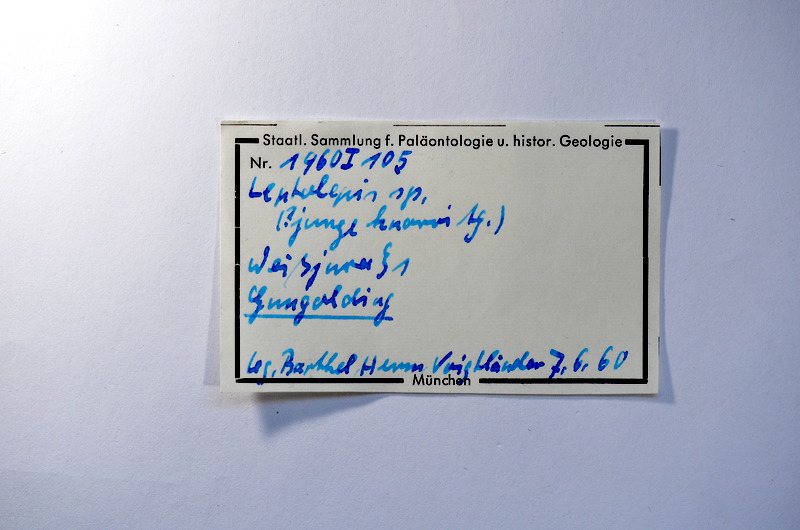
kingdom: Animalia
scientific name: Animalia
